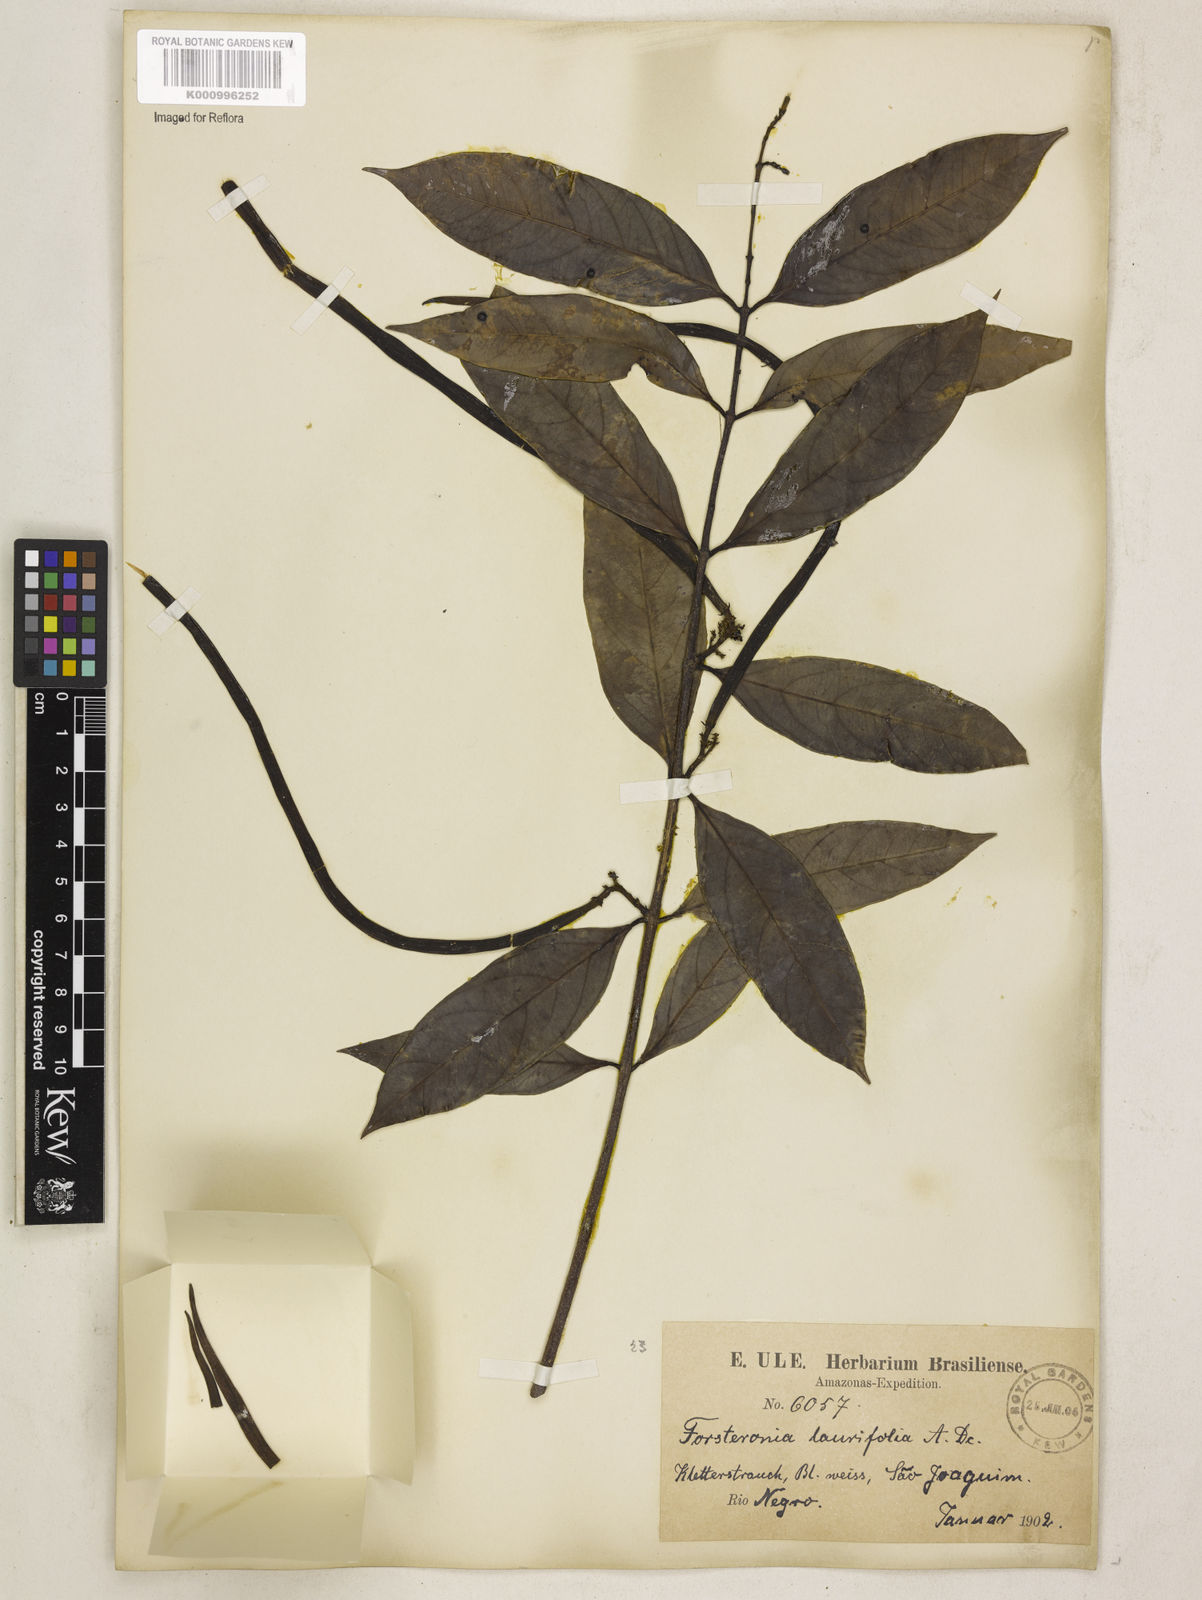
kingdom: Plantae
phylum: Tracheophyta
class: Magnoliopsida
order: Gentianales
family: Apocynaceae
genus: Forsteronia
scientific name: Forsteronia laurifolia
